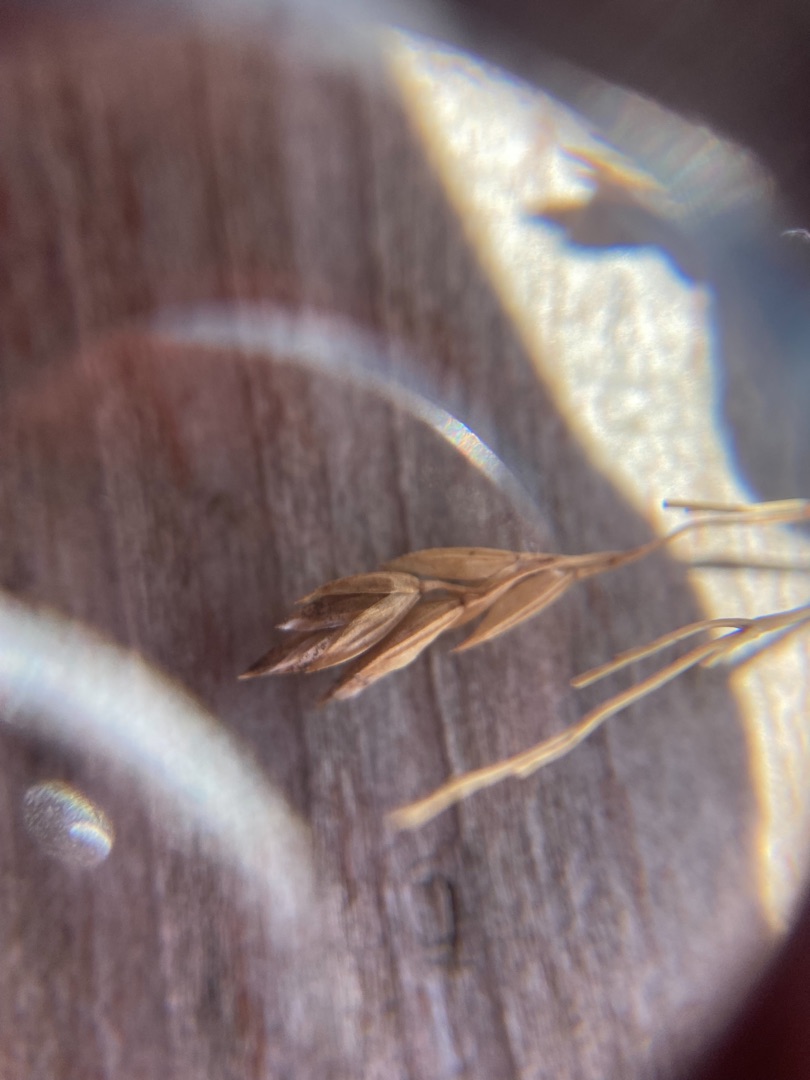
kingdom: Plantae
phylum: Tracheophyta
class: Liliopsida
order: Poales
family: Poaceae
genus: Poa
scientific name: Poa pratensis
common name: Eng-rapgræs
